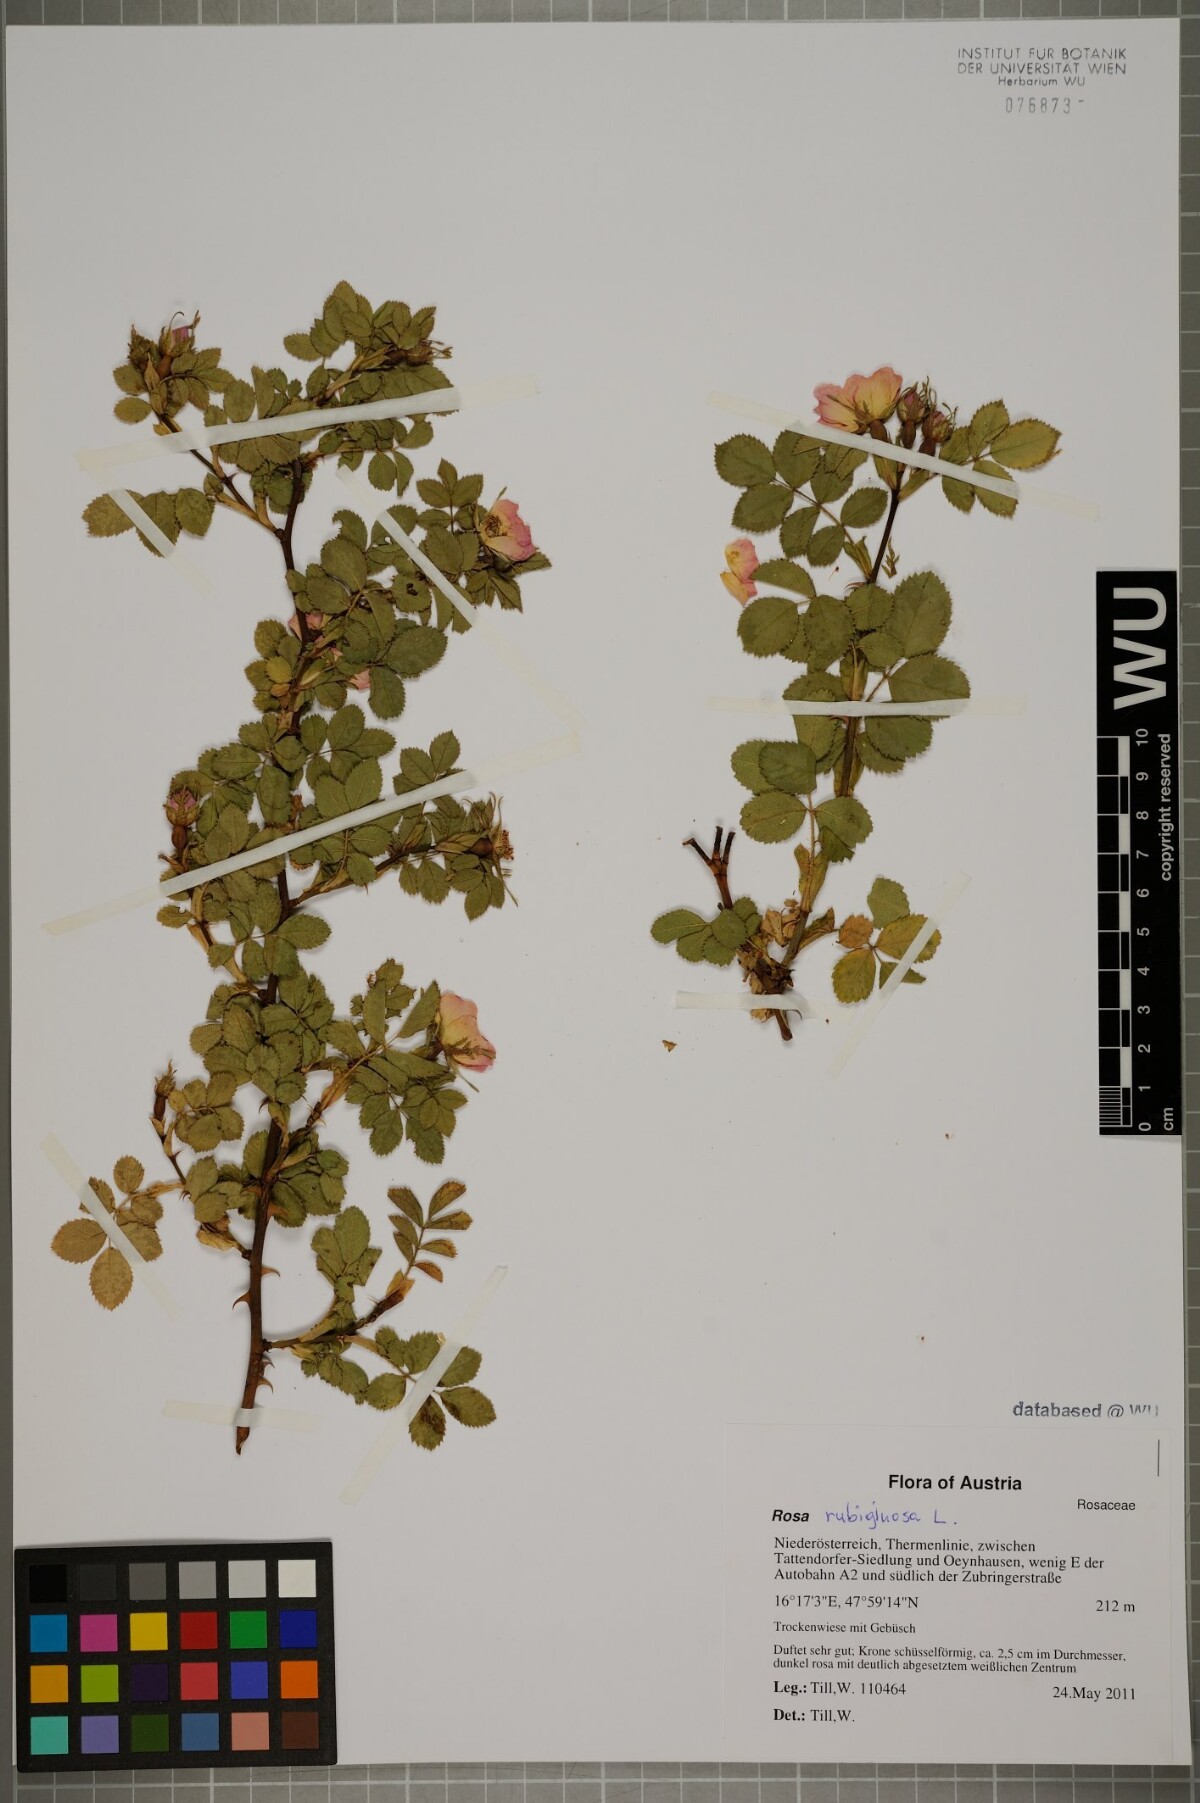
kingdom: Plantae
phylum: Tracheophyta
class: Magnoliopsida
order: Rosales
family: Rosaceae
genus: Rosa
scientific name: Rosa rubiginosa
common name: Sweet-briar
